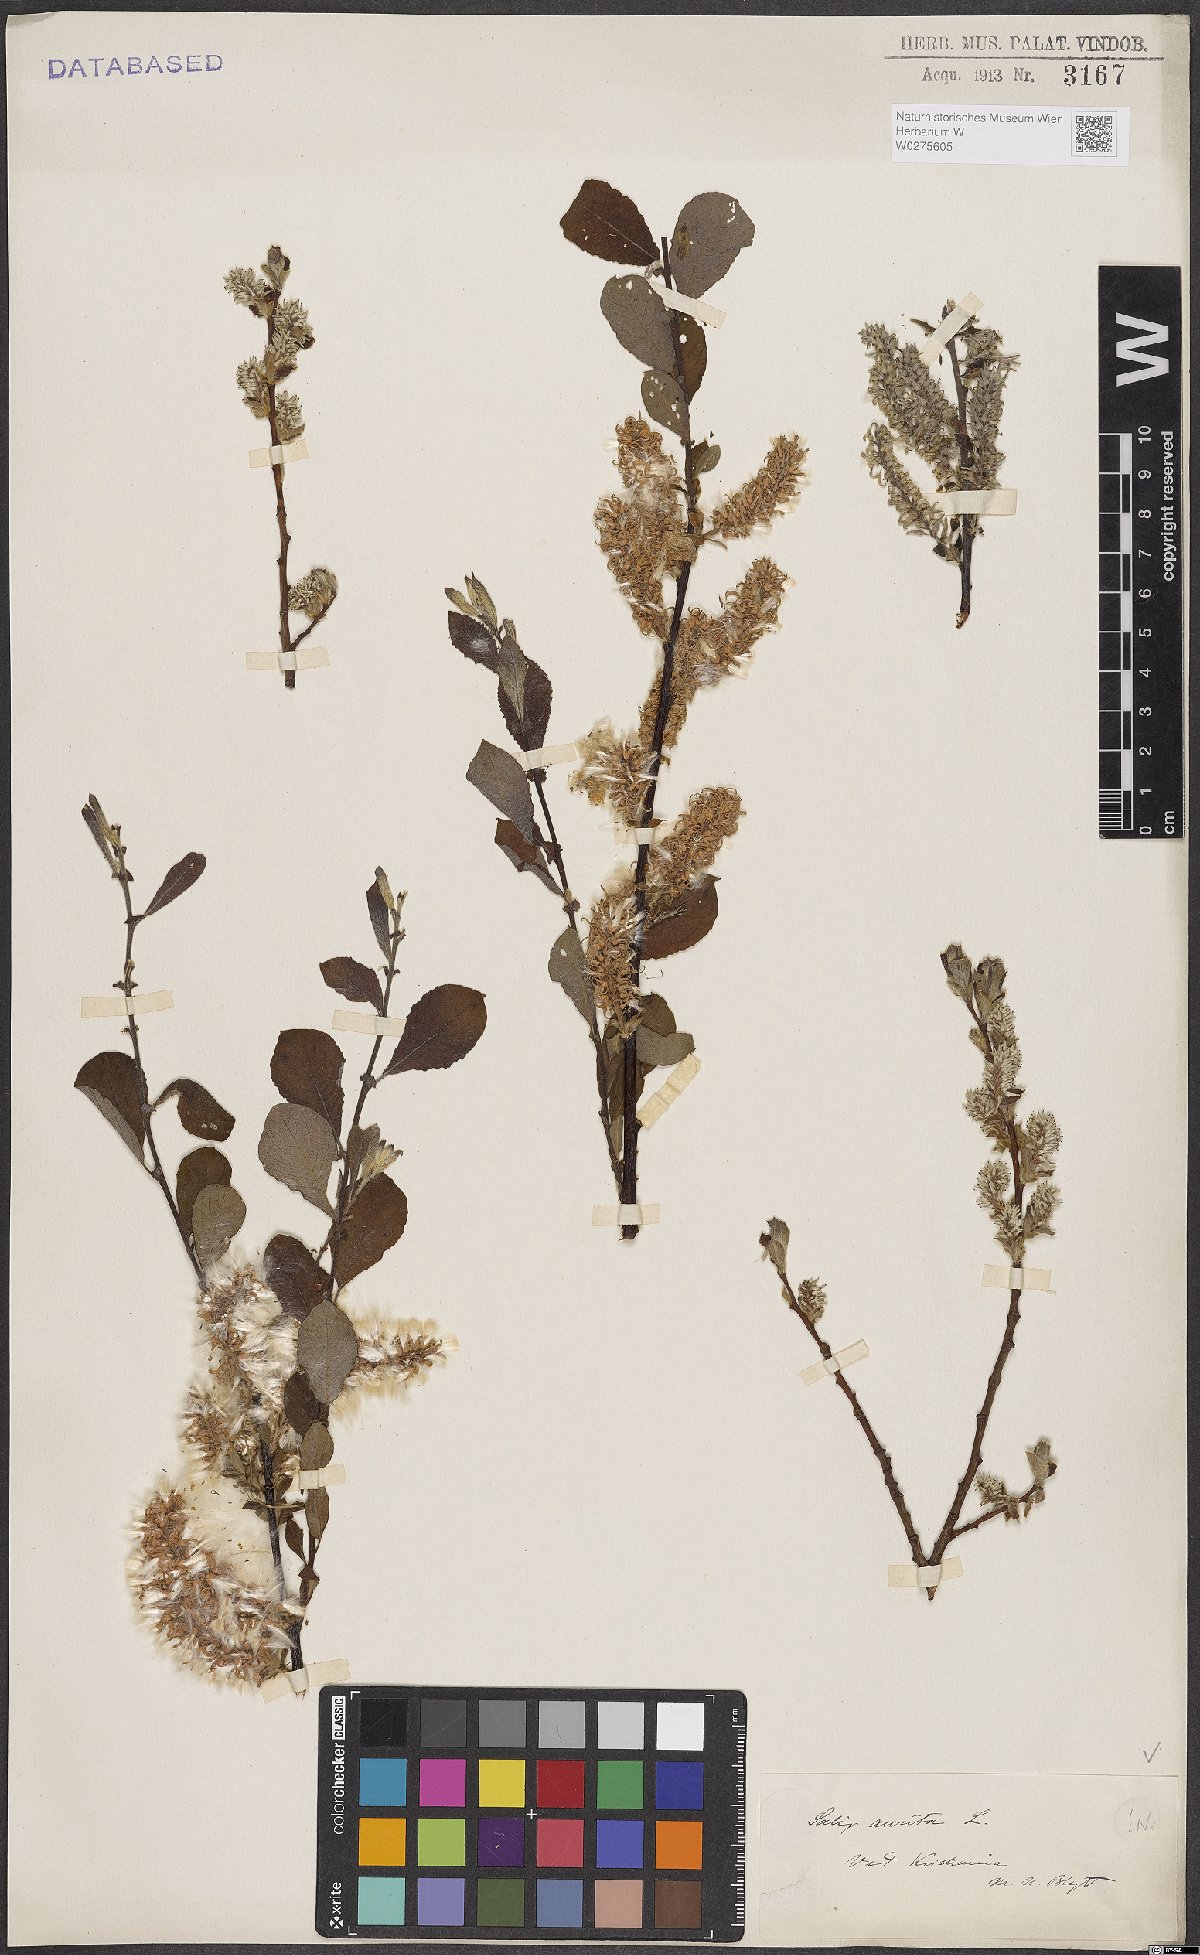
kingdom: Plantae
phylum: Tracheophyta
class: Magnoliopsida
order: Malpighiales
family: Salicaceae
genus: Salix
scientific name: Salix aurita
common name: Eared willow
